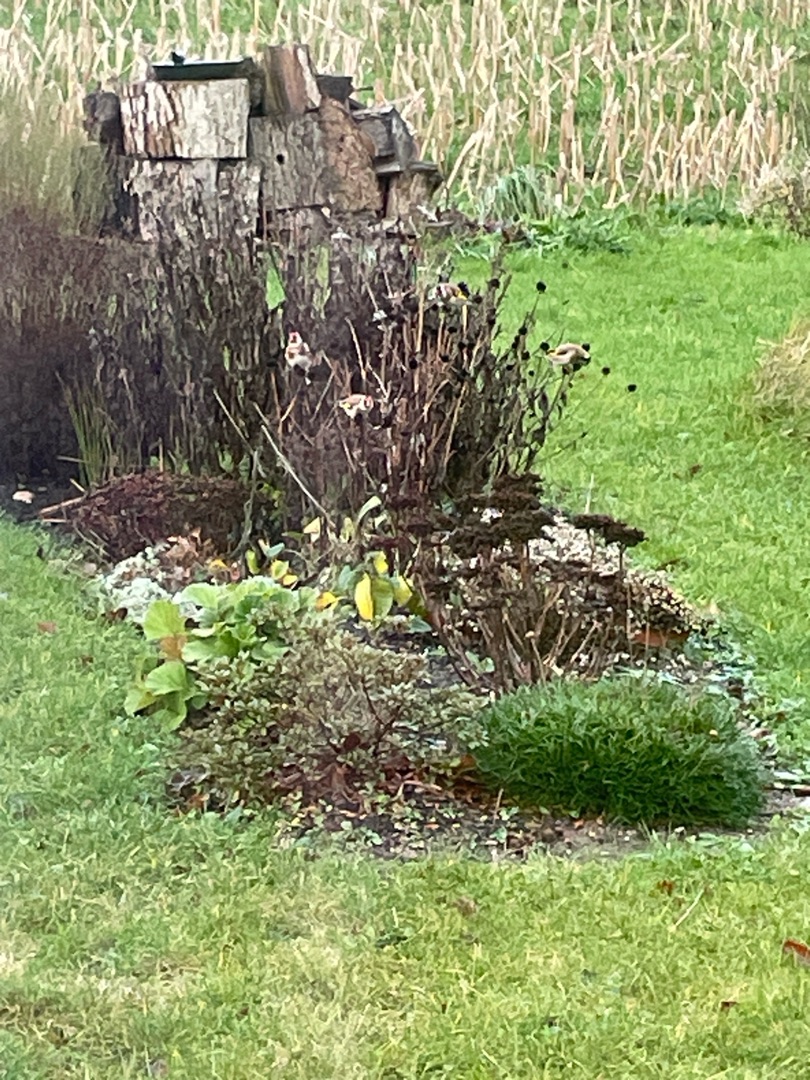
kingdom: Animalia
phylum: Chordata
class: Aves
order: Passeriformes
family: Fringillidae
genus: Carduelis
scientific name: Carduelis carduelis
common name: Stillits
